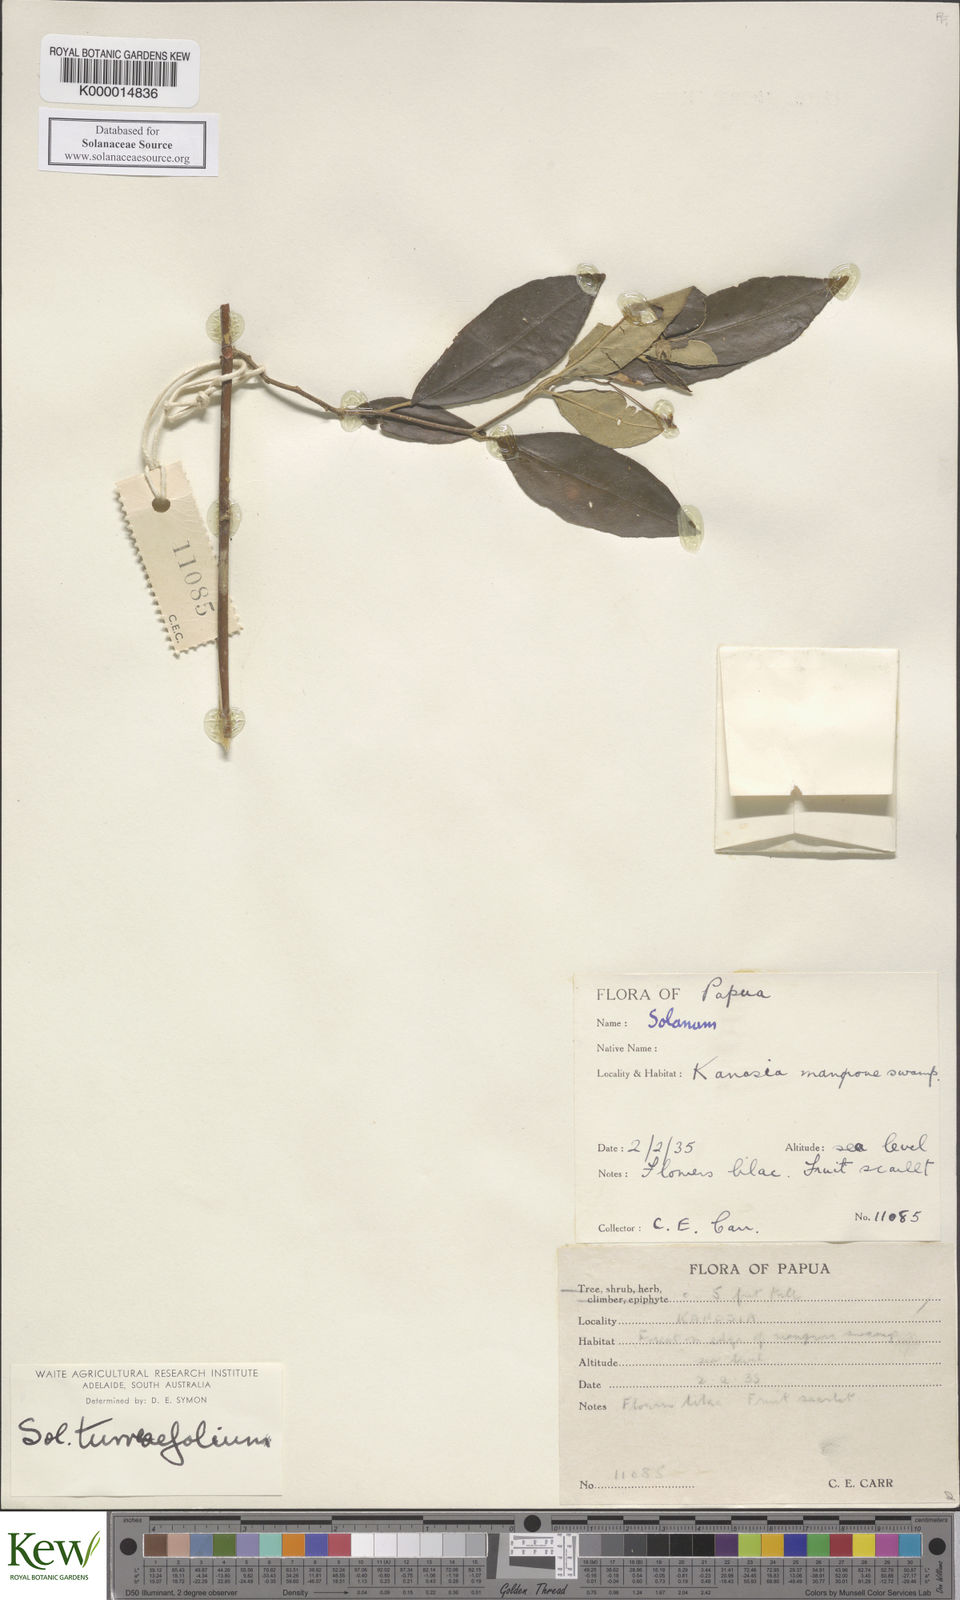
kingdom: Plantae
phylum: Tracheophyta
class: Magnoliopsida
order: Solanales
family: Solanaceae
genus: Solanum
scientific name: Solanum discolor
